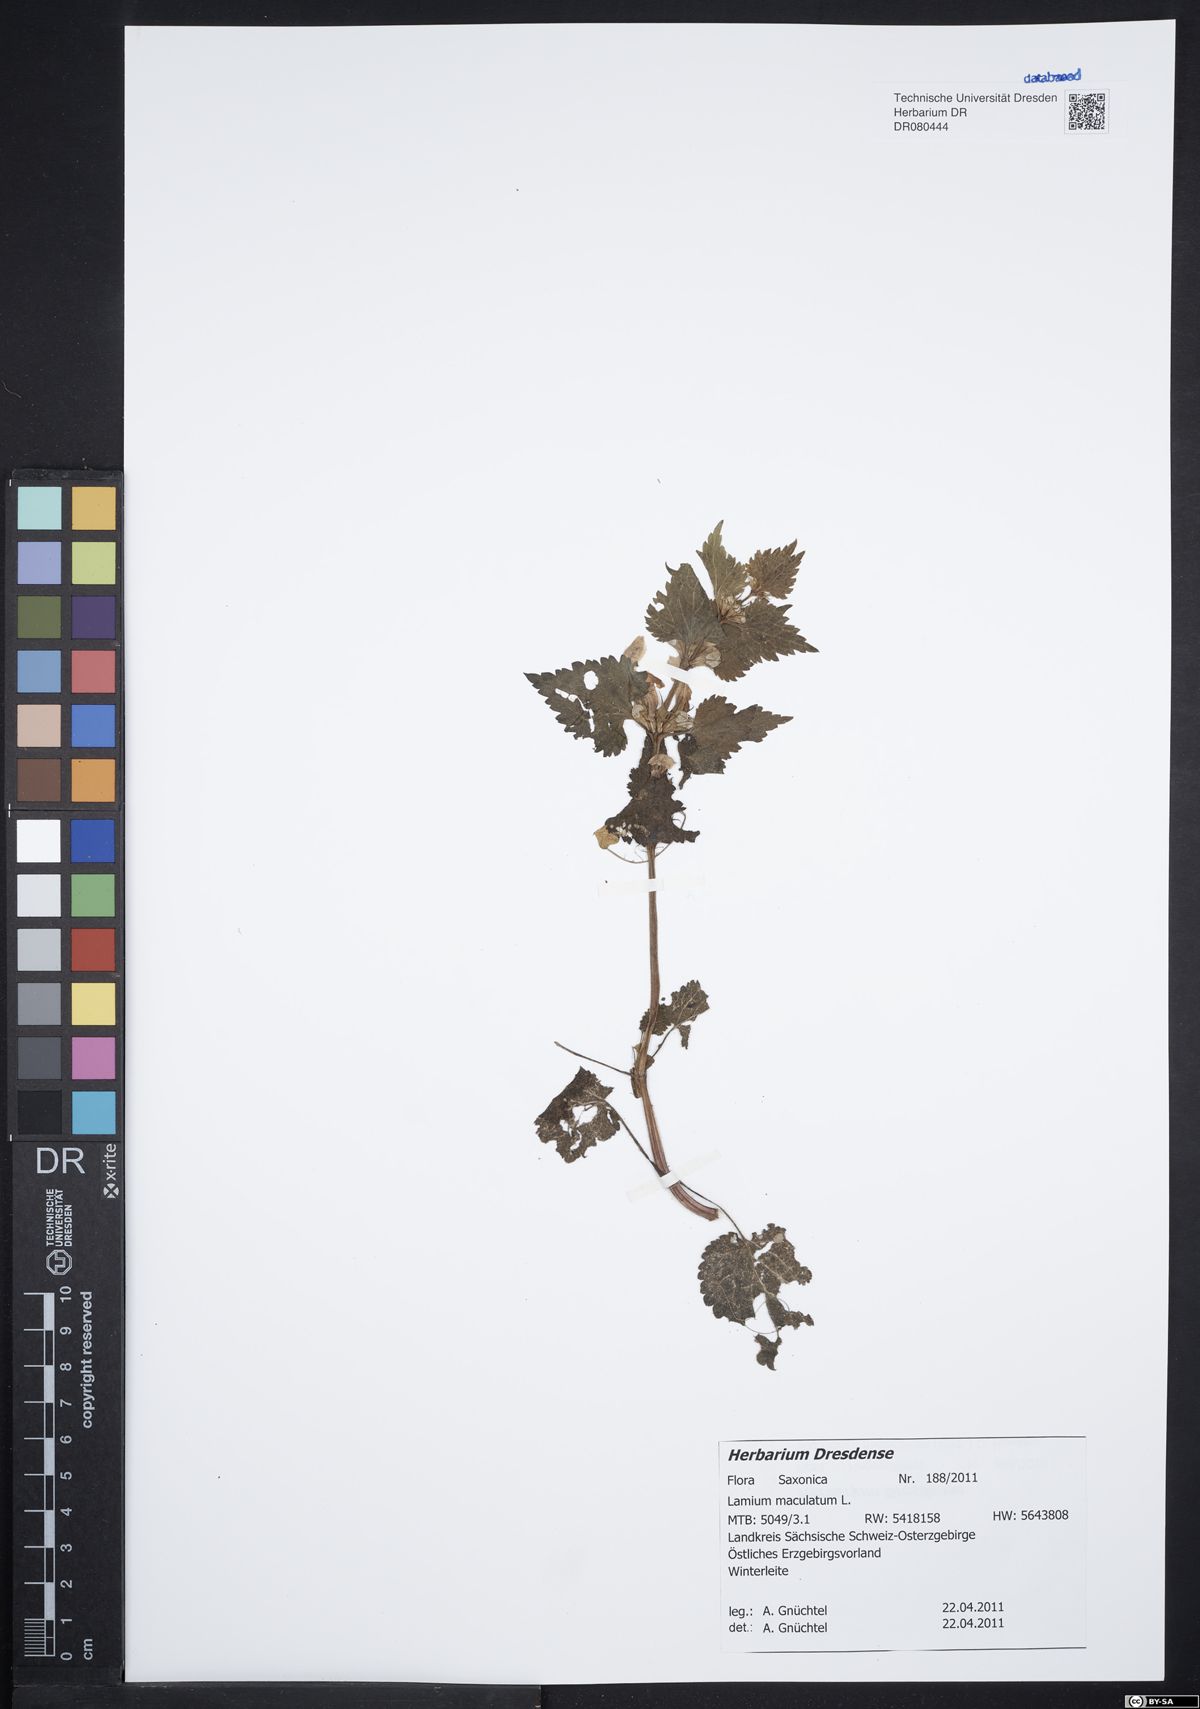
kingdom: Plantae
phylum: Tracheophyta
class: Magnoliopsida
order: Lamiales
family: Lamiaceae
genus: Lamium
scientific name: Lamium maculatum
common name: Spotted dead-nettle
